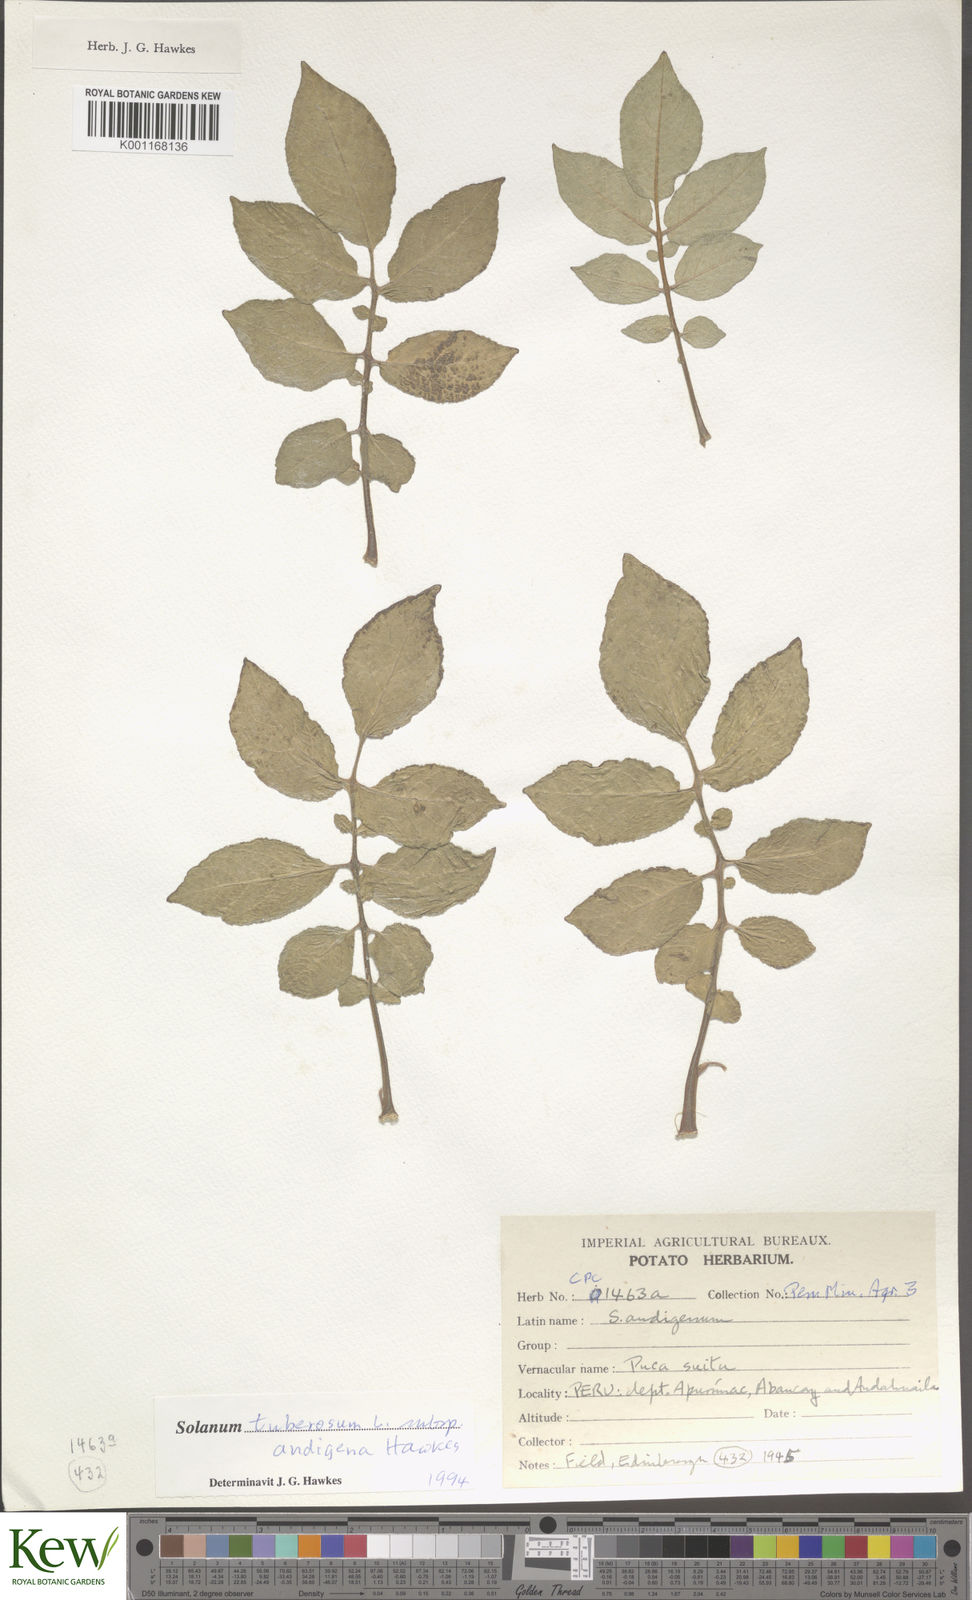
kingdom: Plantae
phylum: Tracheophyta
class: Magnoliopsida
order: Solanales
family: Solanaceae
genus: Solanum
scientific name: Solanum tuberosum
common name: Potato
